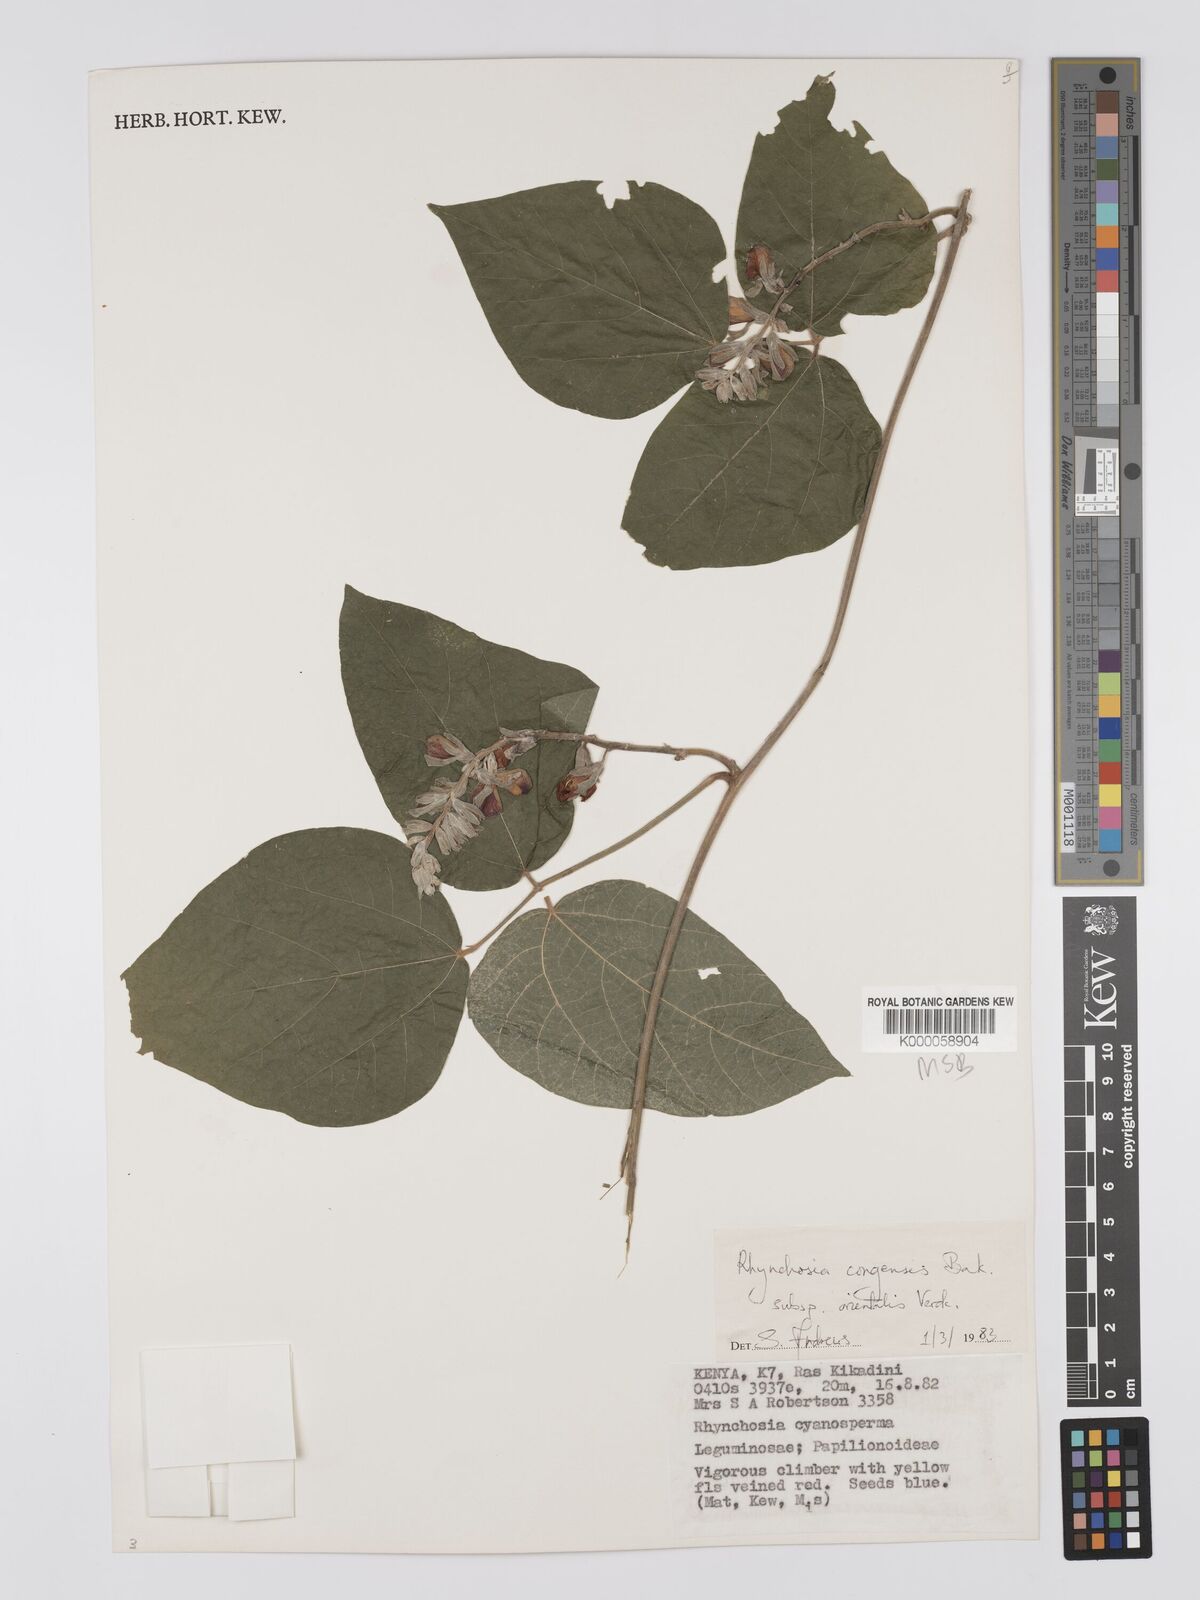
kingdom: Plantae
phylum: Tracheophyta
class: Magnoliopsida
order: Fabales
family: Fabaceae
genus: Rhynchosia
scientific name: Rhynchosia congensis
